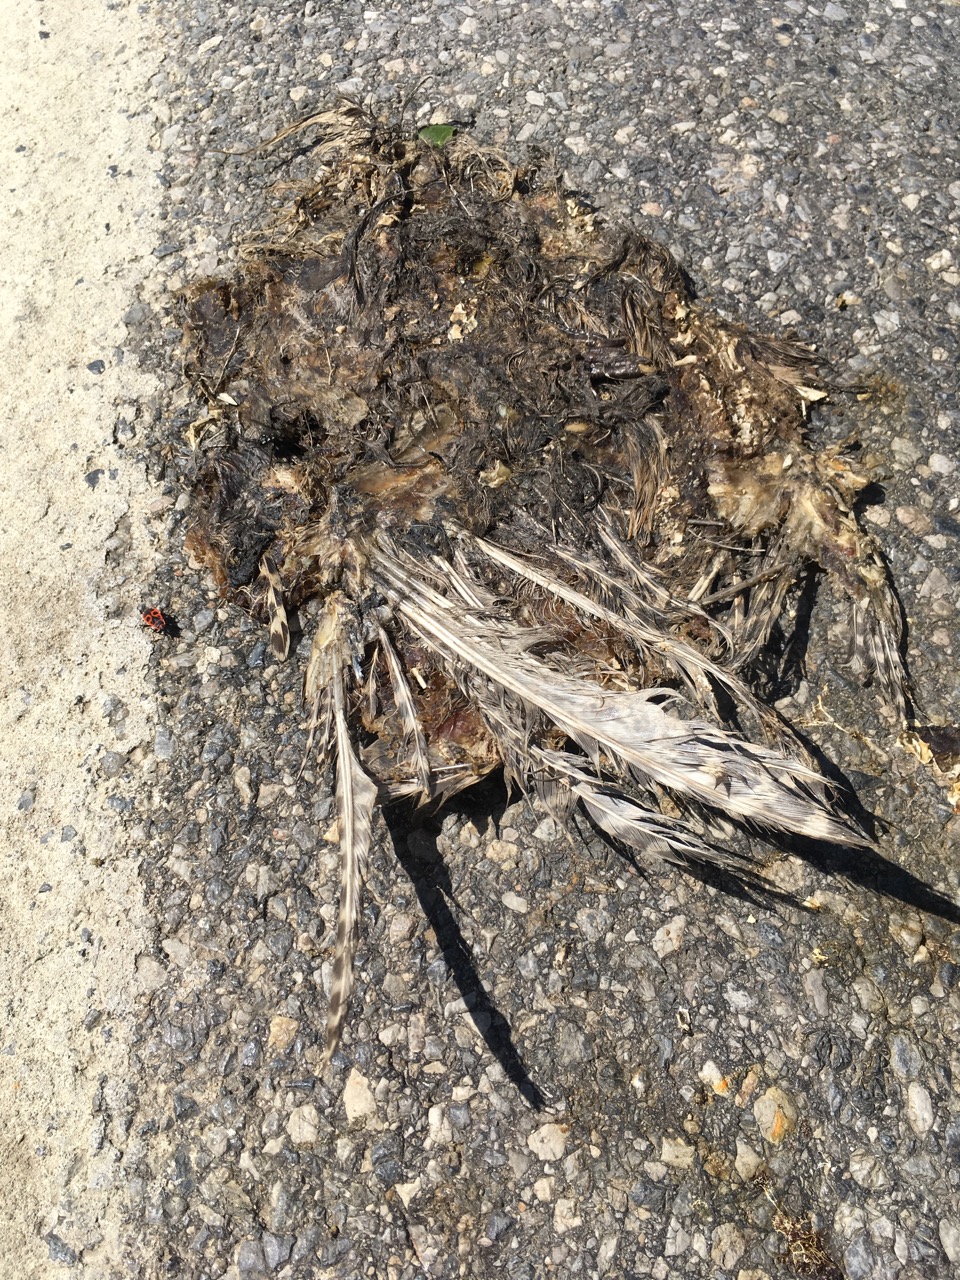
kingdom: Animalia
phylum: Chordata
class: Aves
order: Galliformes
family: Phasianidae
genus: Phasianus
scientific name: Phasianus colchicus
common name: Common pheasant
